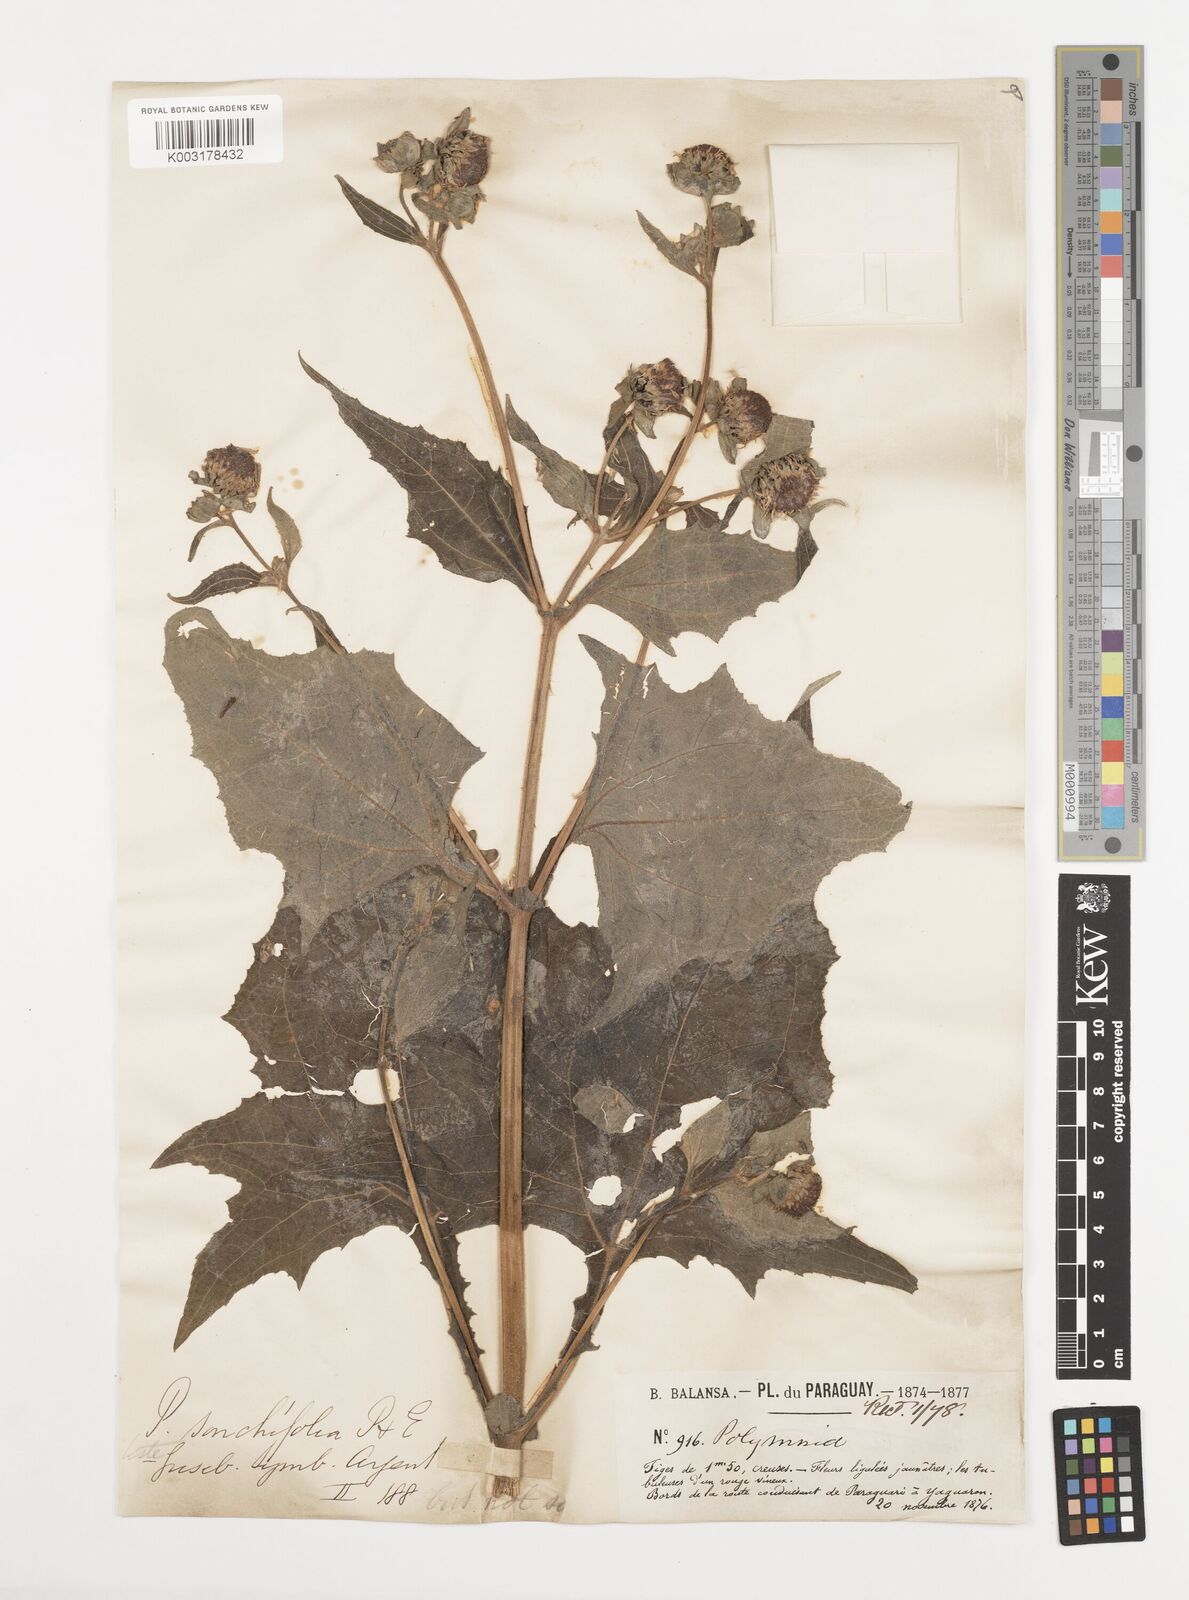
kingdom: Plantae
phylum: Tracheophyta
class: Magnoliopsida
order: Asterales
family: Asteraceae
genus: Smallanthus
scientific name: Smallanthus connatus
